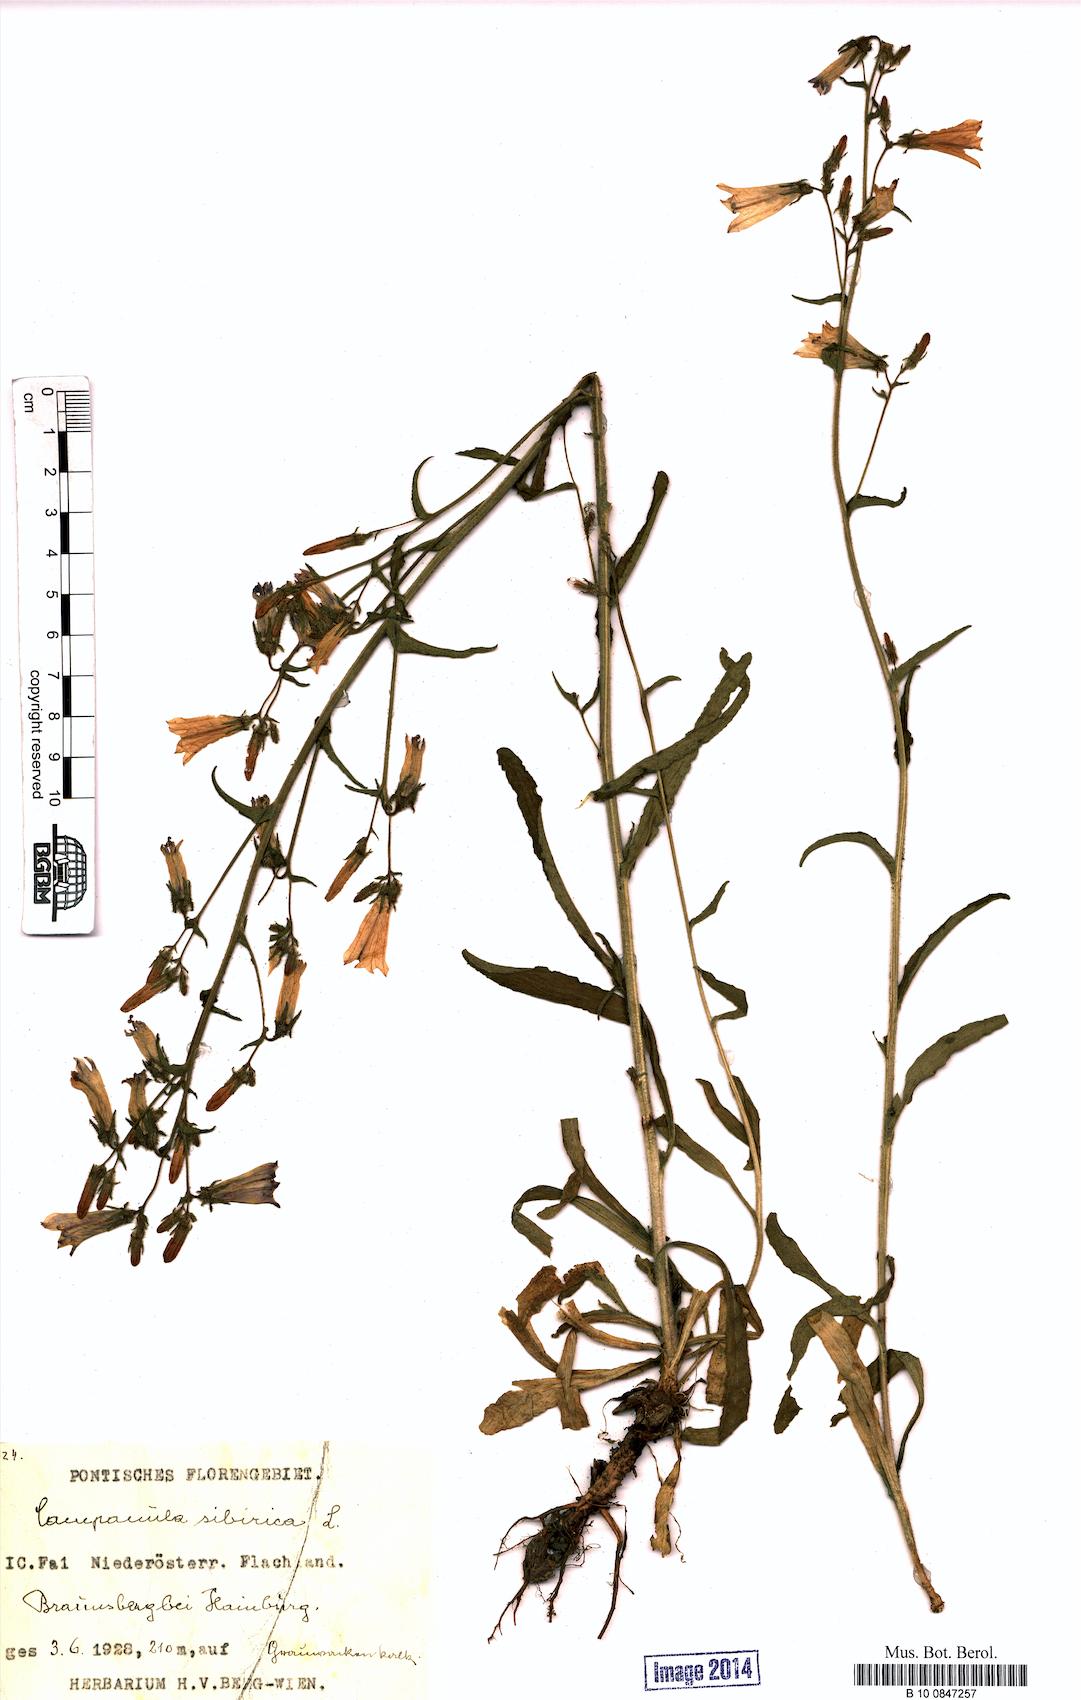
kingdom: Plantae
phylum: Tracheophyta
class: Magnoliopsida
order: Asterales
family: Campanulaceae
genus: Campanula
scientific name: Campanula sibirica
